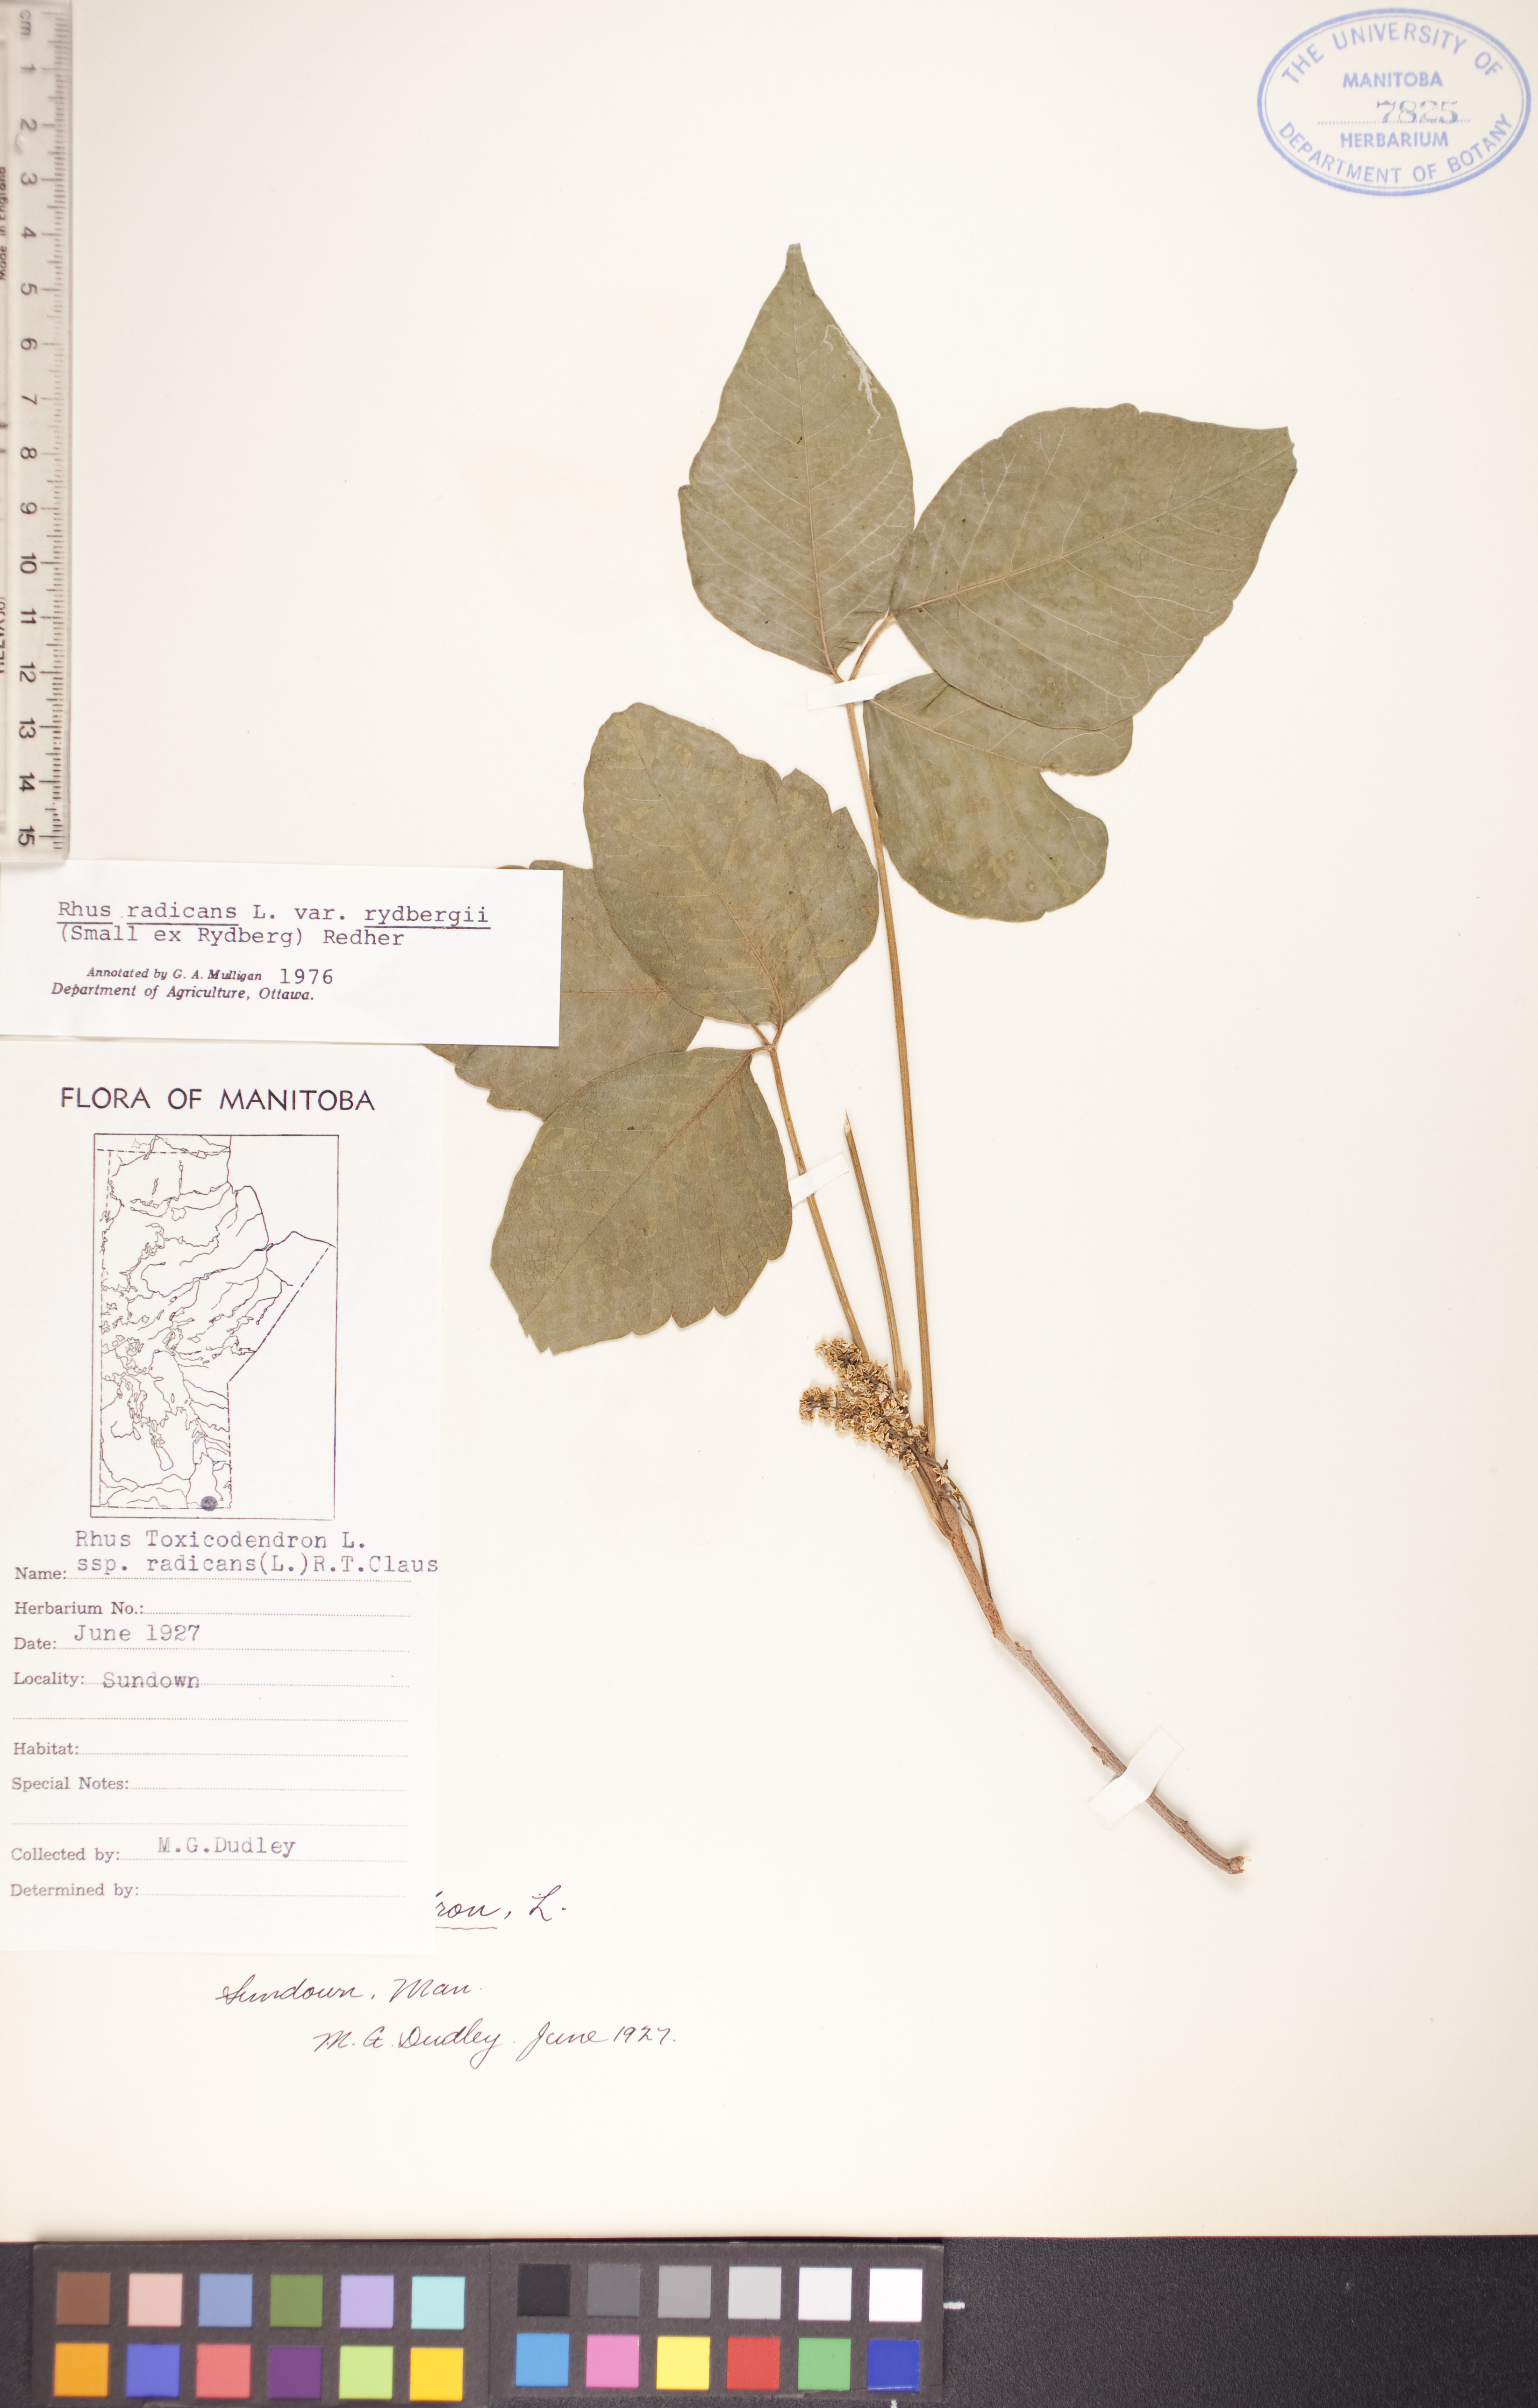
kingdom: Plantae
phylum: Tracheophyta
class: Magnoliopsida
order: Sapindales
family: Anacardiaceae
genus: Toxicodendron
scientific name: Toxicodendron rydbergii
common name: Rydberg's poison-ivy
